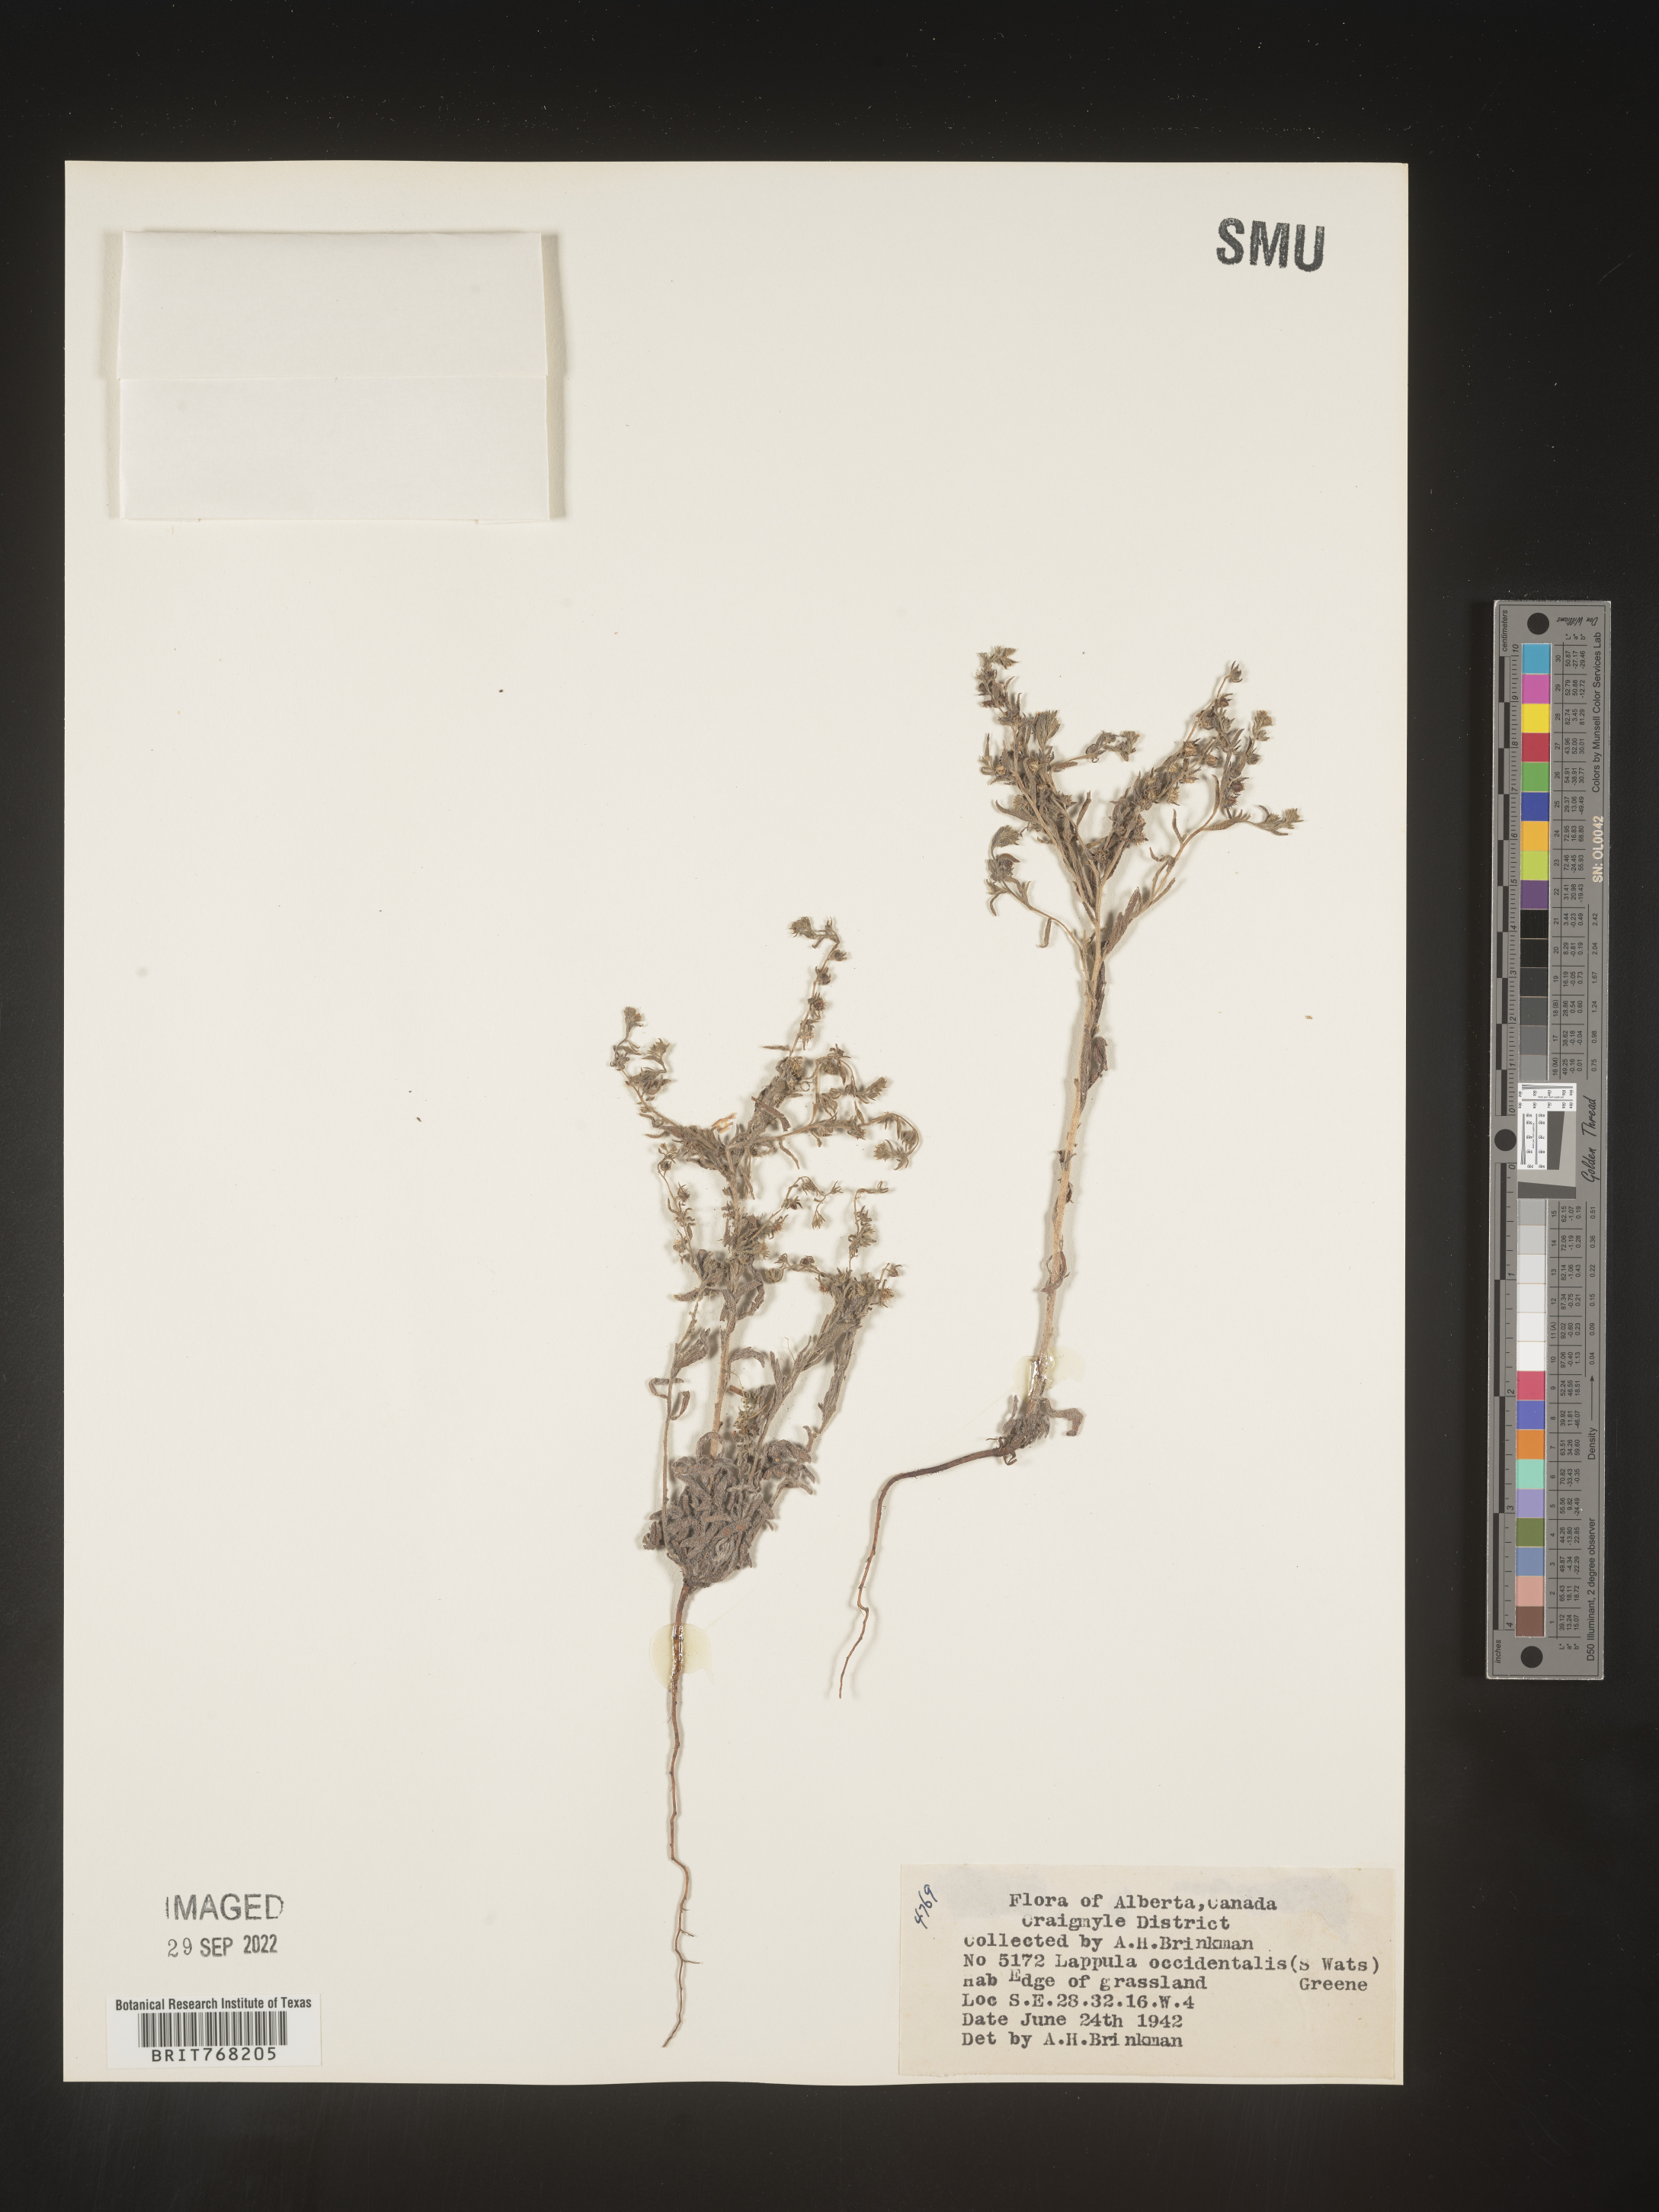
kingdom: Plantae
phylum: Tracheophyta
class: Magnoliopsida
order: Boraginales
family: Boraginaceae
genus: Lappula
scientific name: Lappula
